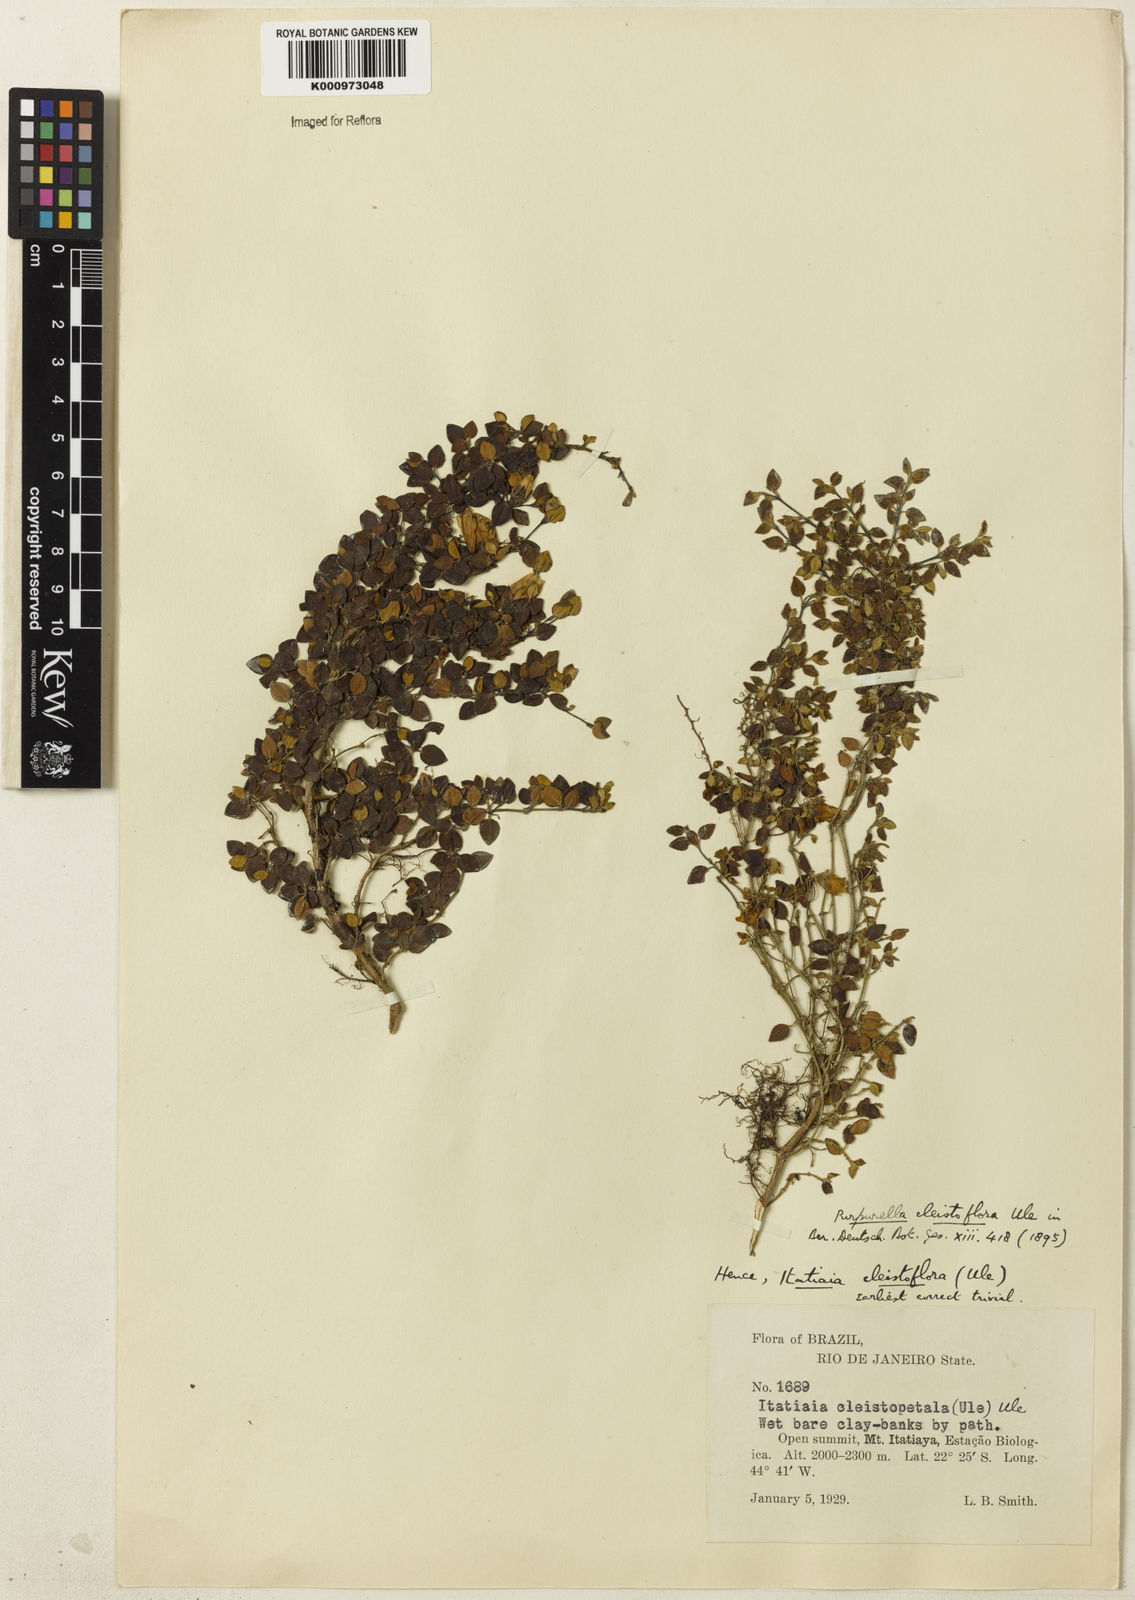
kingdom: Plantae
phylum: Tracheophyta
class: Magnoliopsida
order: Myrtales
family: Melastomataceae
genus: Pleroma
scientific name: Pleroma cleistoflora
